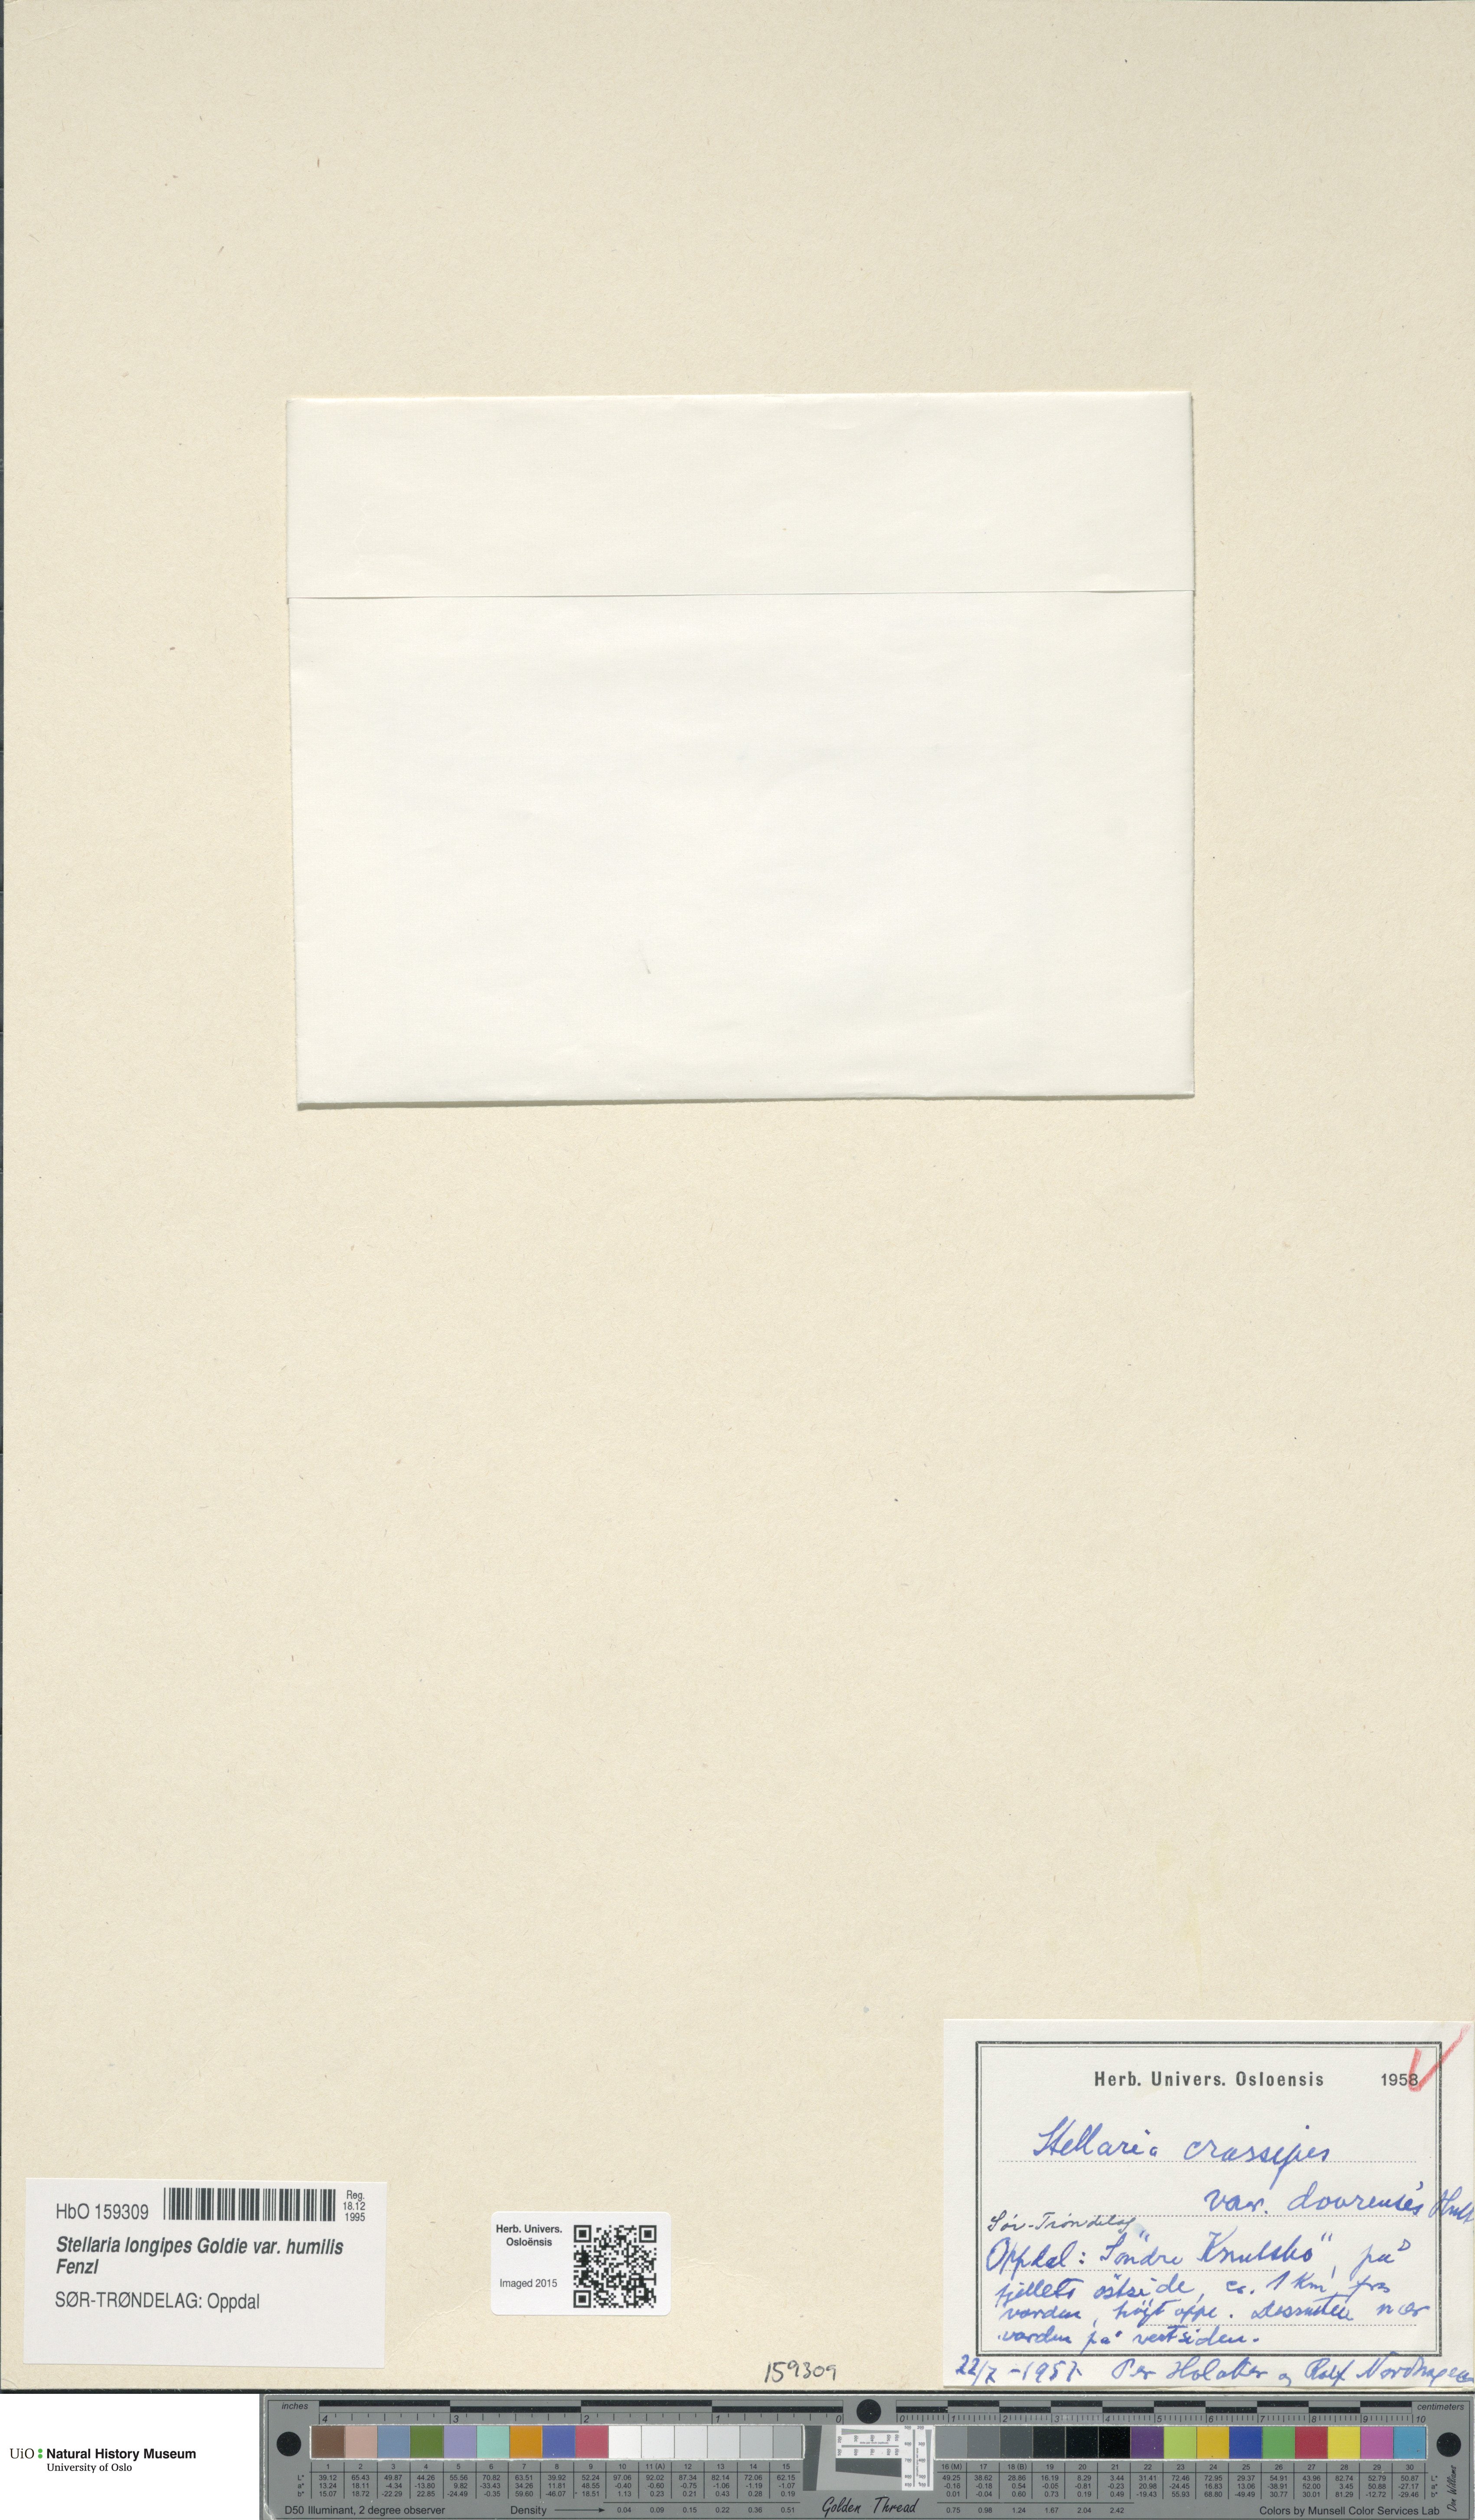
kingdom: Plantae
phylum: Tracheophyta
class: Magnoliopsida
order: Caryophyllales
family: Caryophyllaceae
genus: Stellaria
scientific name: Stellaria ruscifolia
